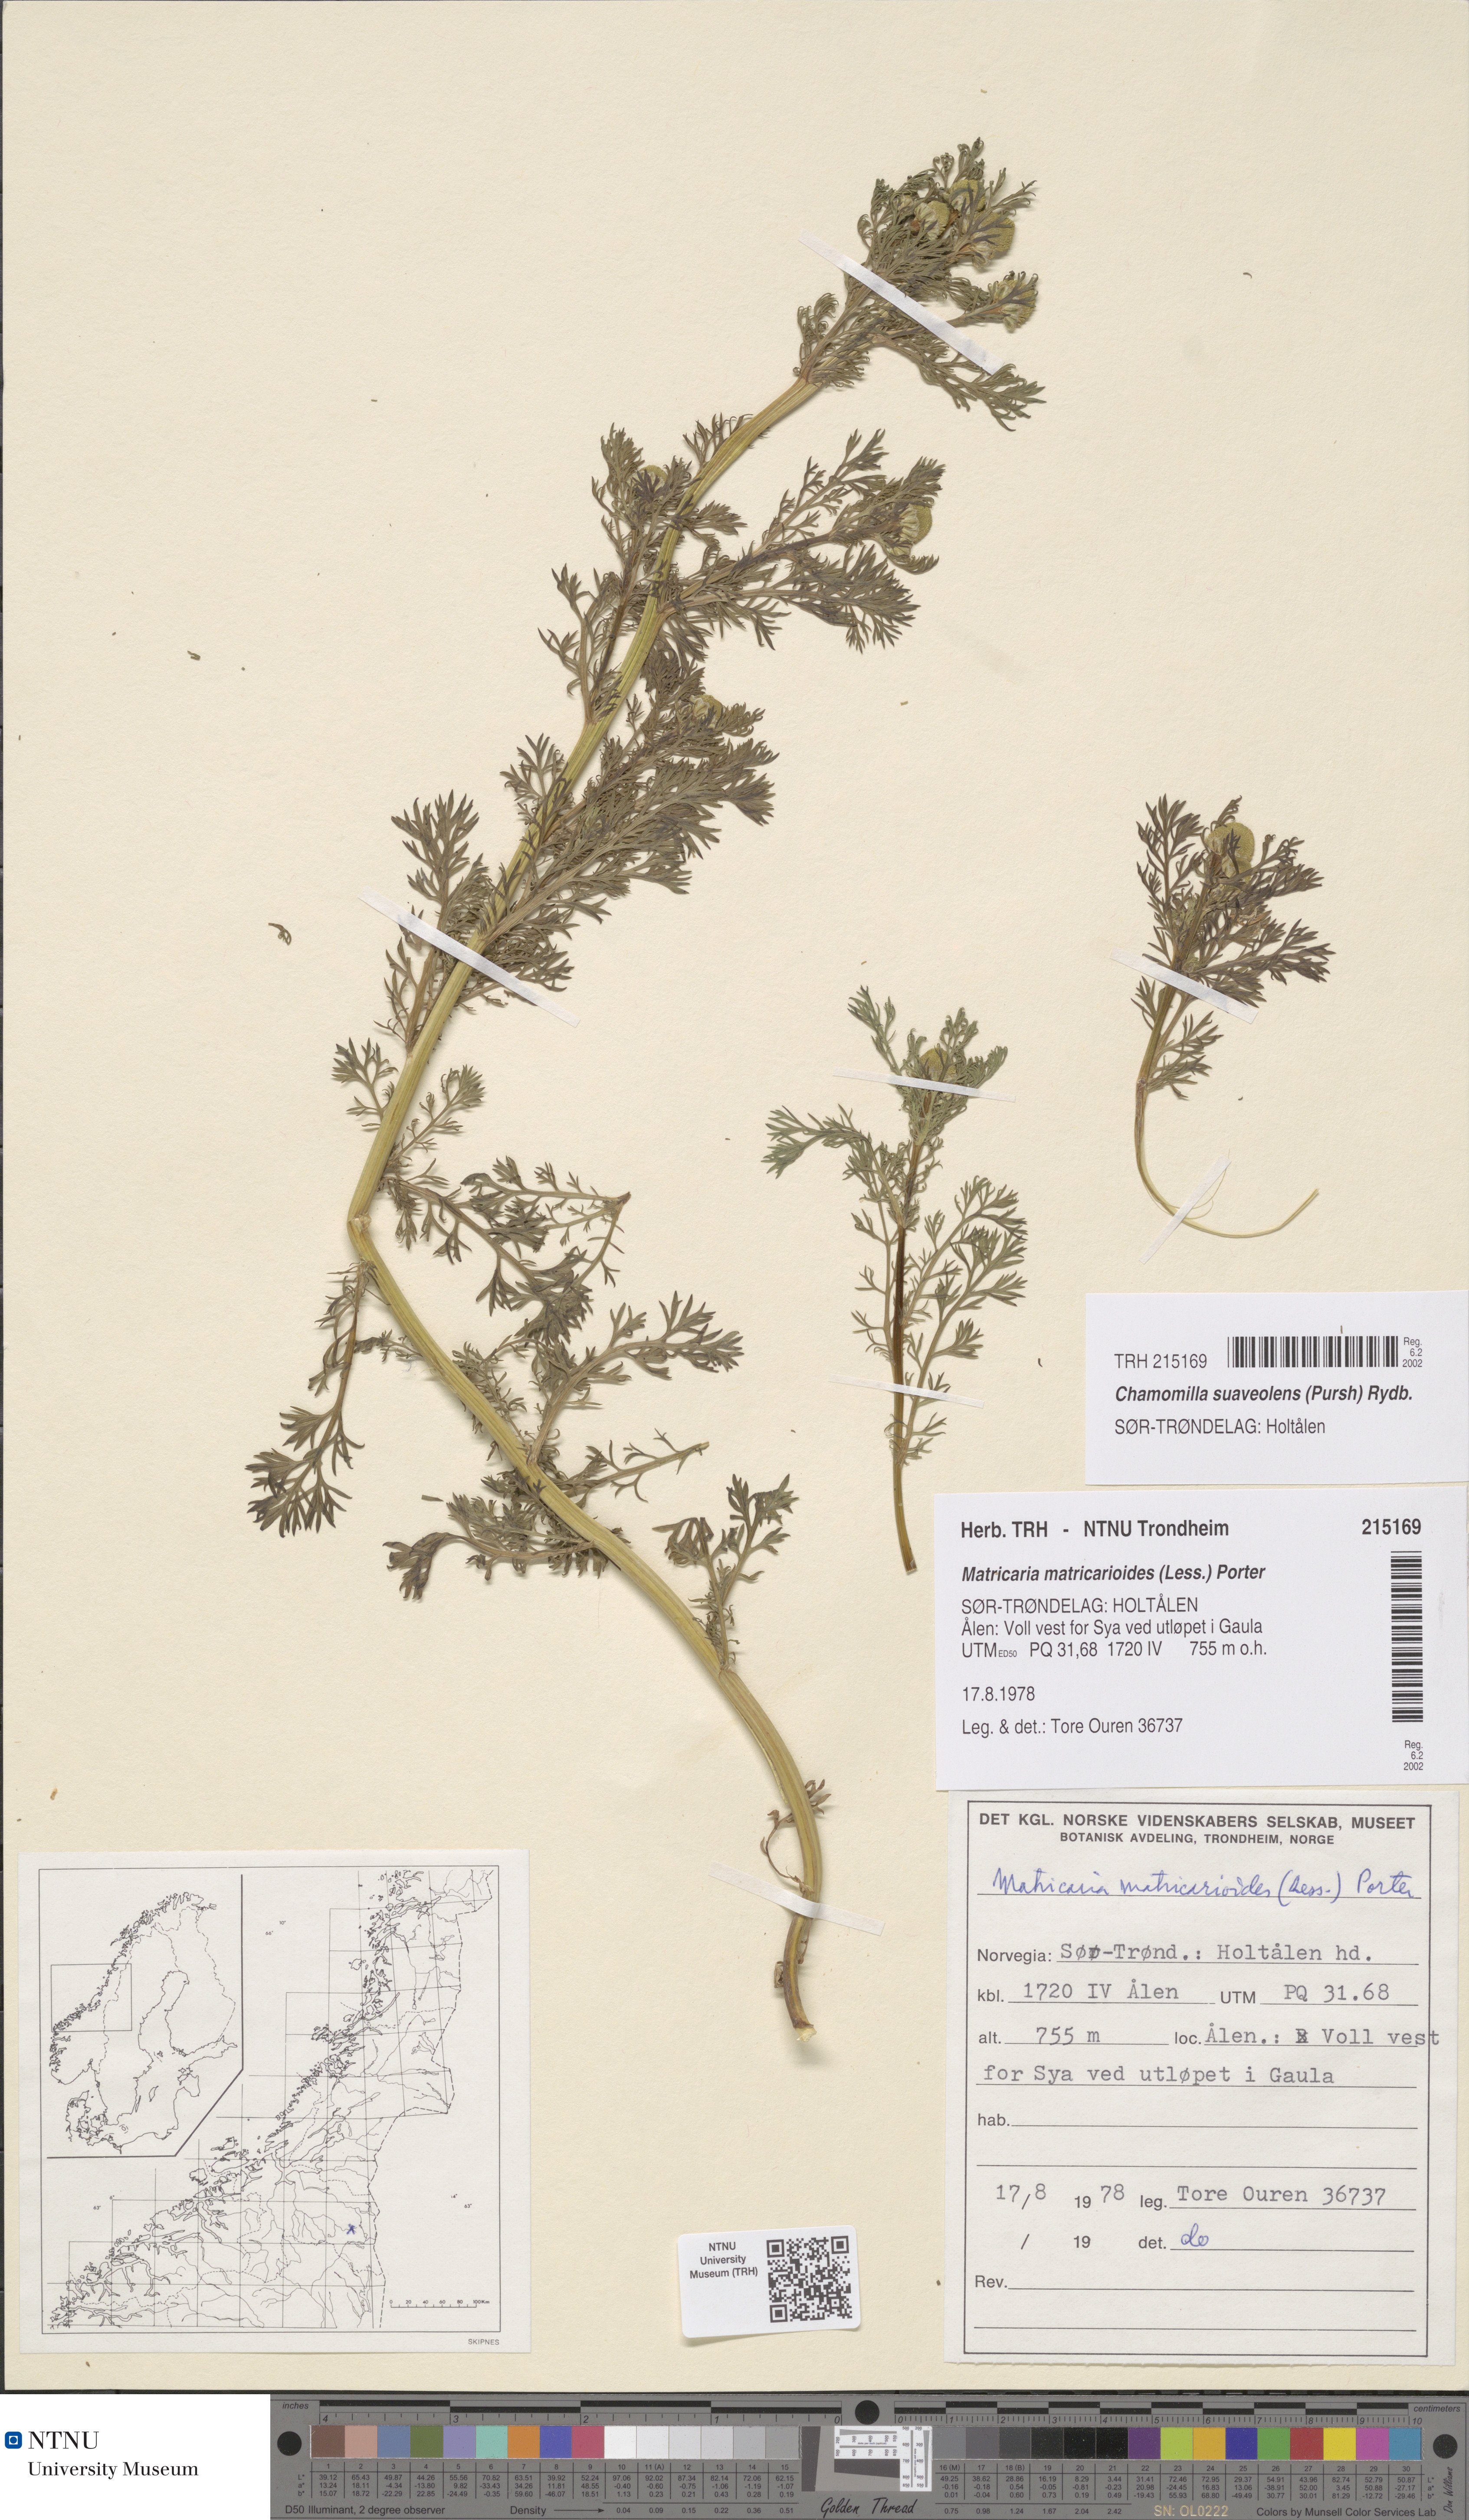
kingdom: Plantae
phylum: Tracheophyta
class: Magnoliopsida
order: Asterales
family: Asteraceae
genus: Matricaria
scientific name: Matricaria discoidea
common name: Disc mayweed
